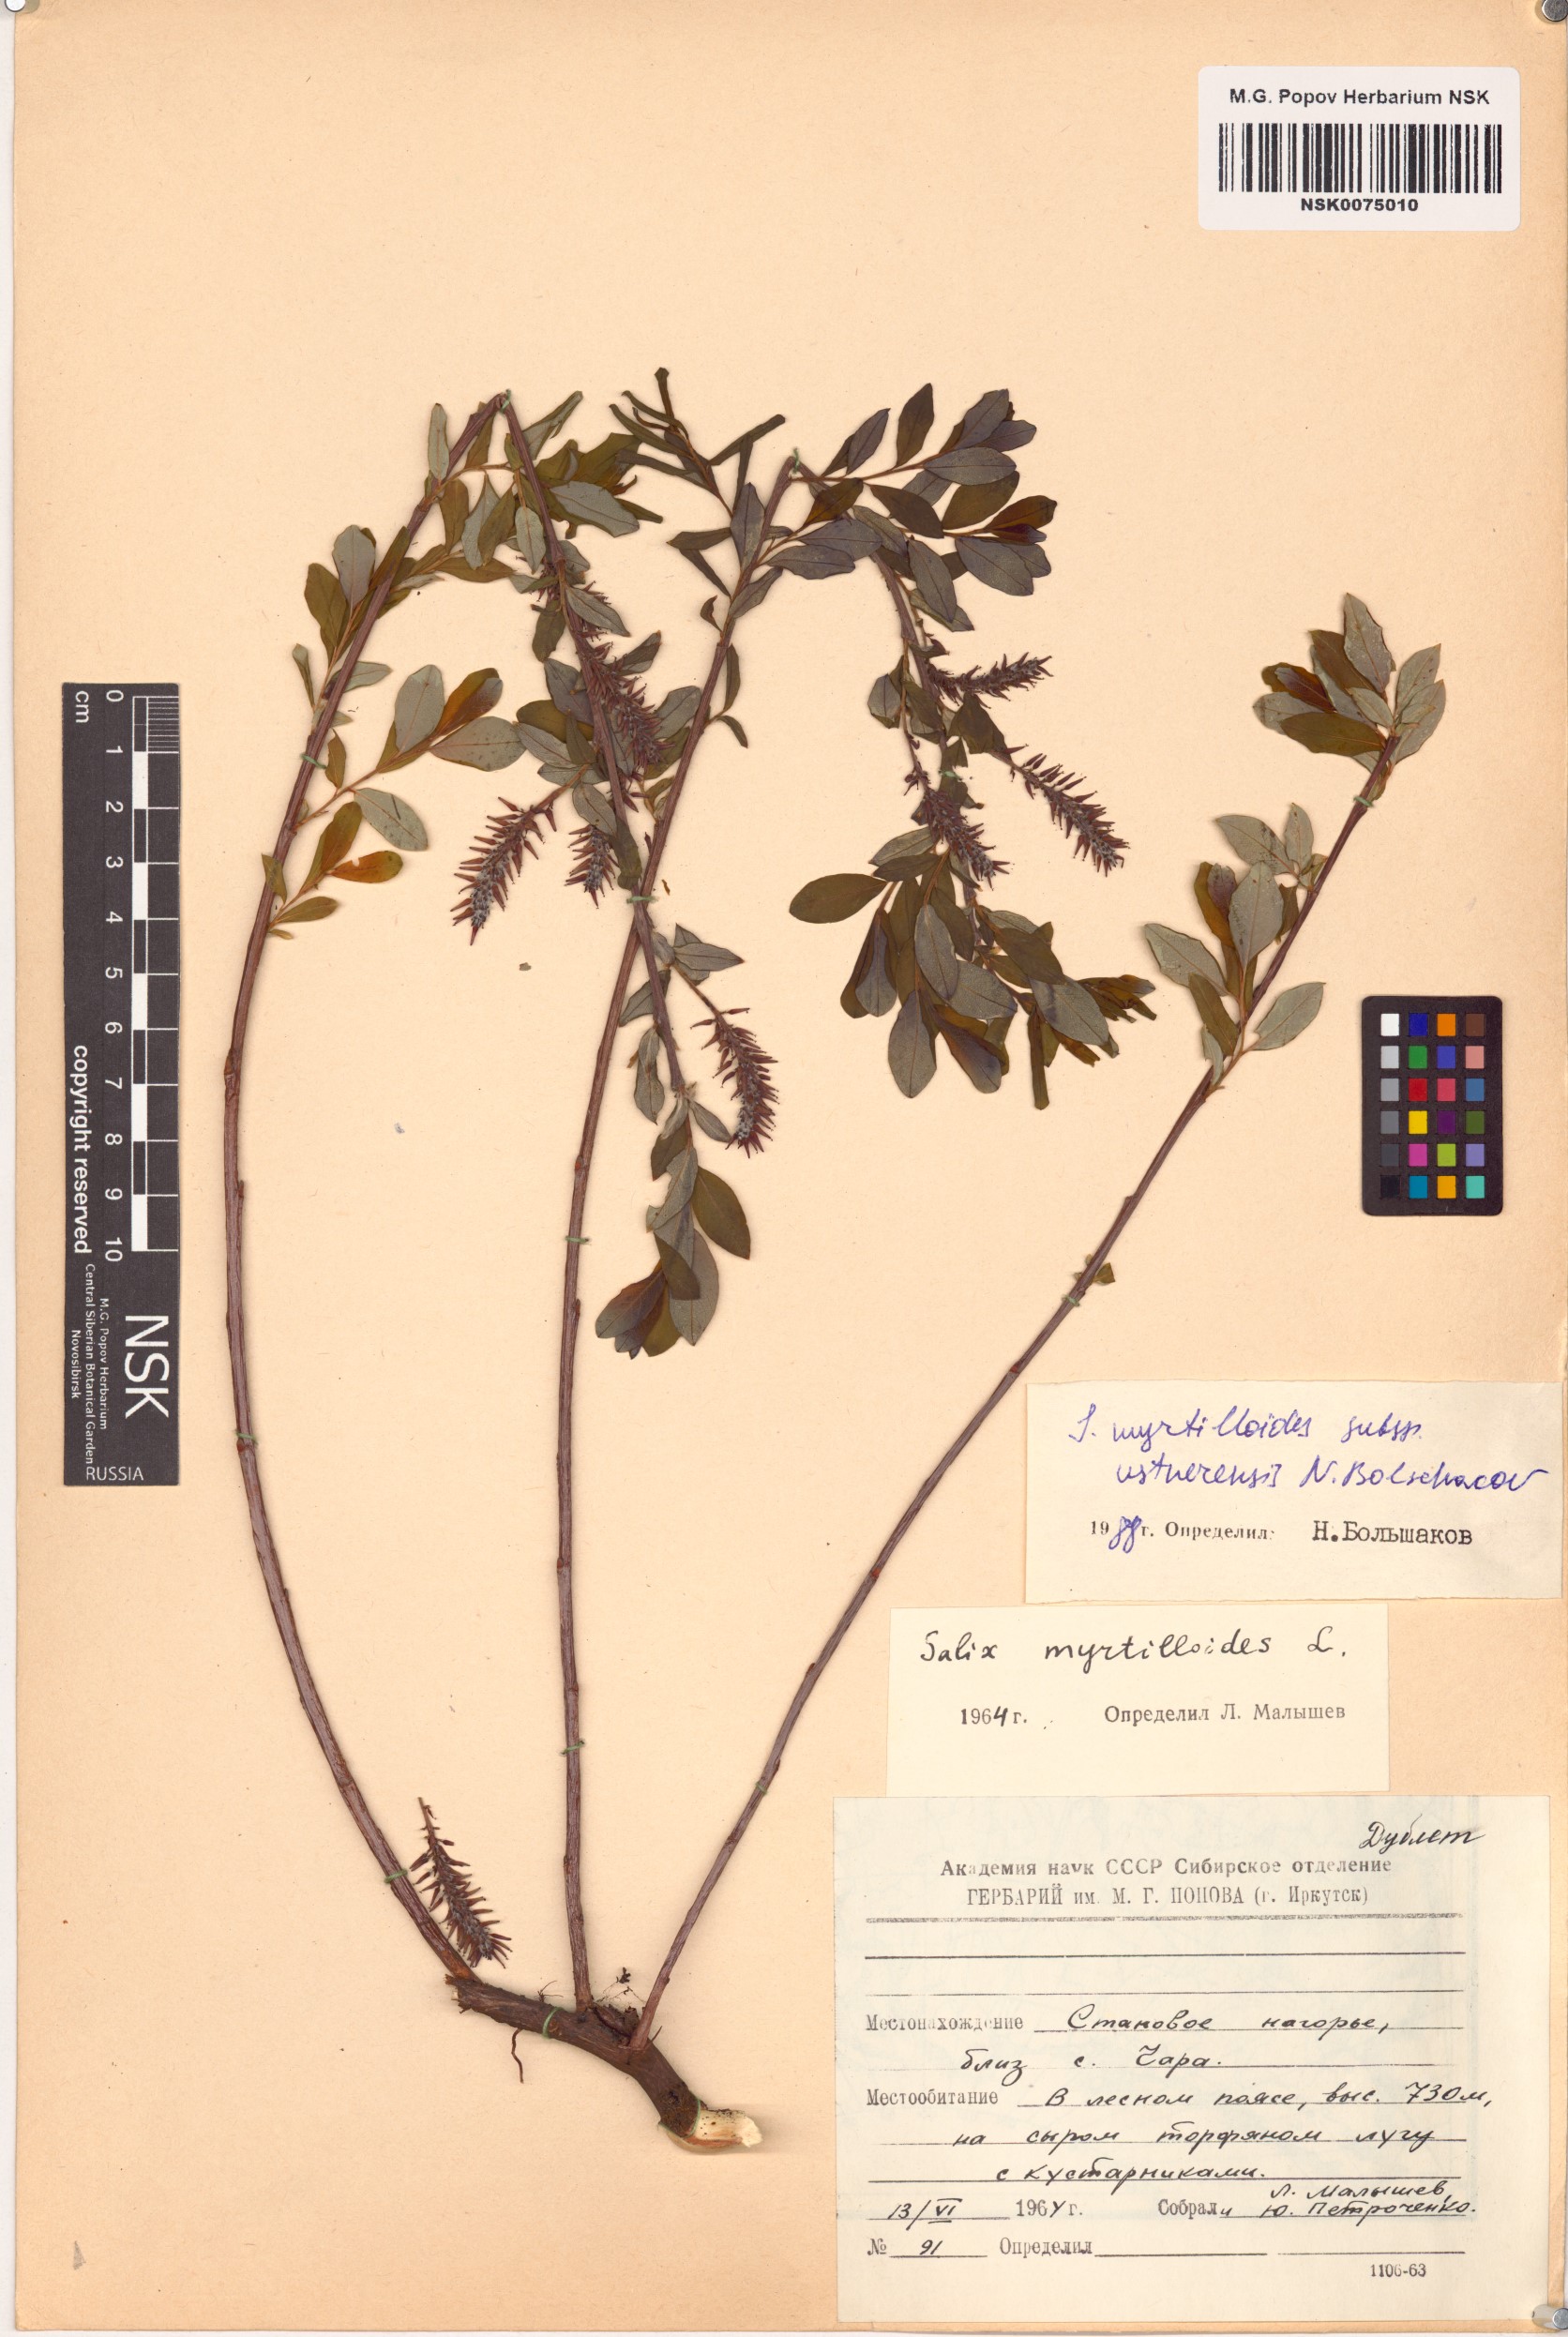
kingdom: Plantae
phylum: Tracheophyta
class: Magnoliopsida
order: Malpighiales
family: Salicaceae
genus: Salix
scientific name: Salix ustnerensis
